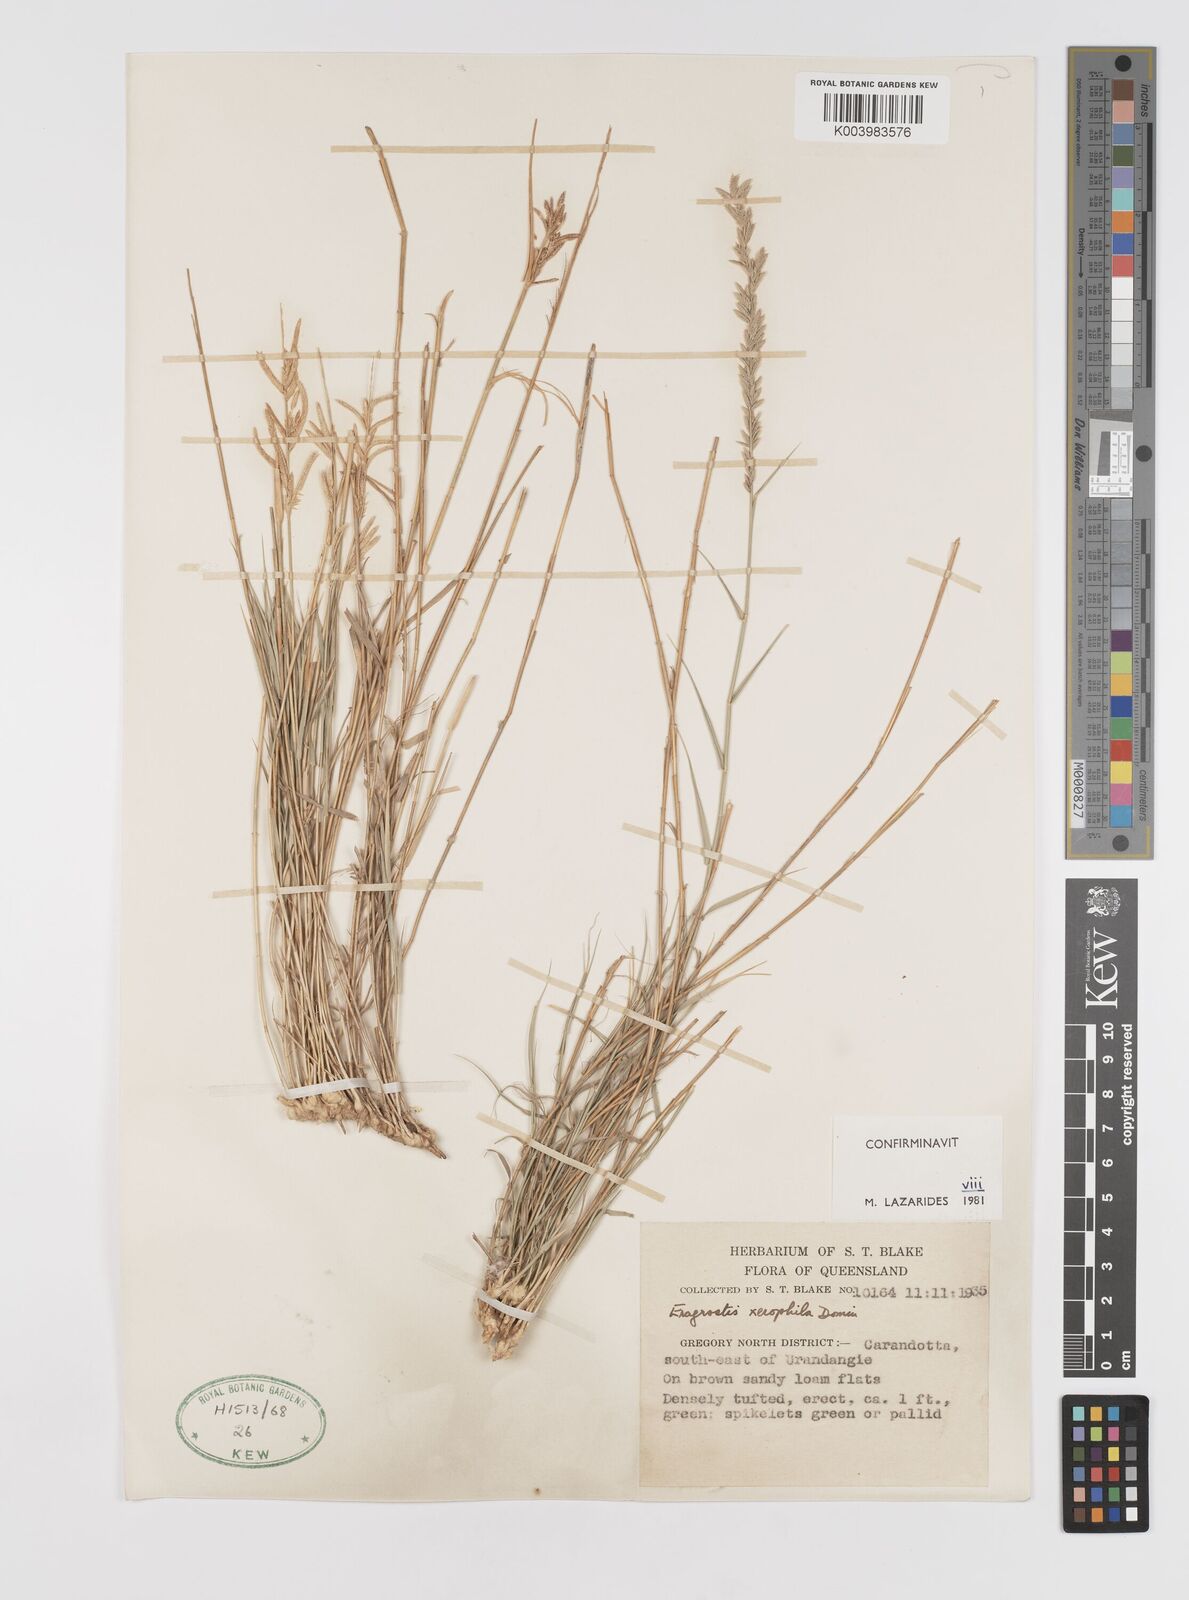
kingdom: Plantae
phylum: Tracheophyta
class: Liliopsida
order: Poales
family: Poaceae
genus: Eragrostis
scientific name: Eragrostis xerophila
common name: Wire wandarrie grass
